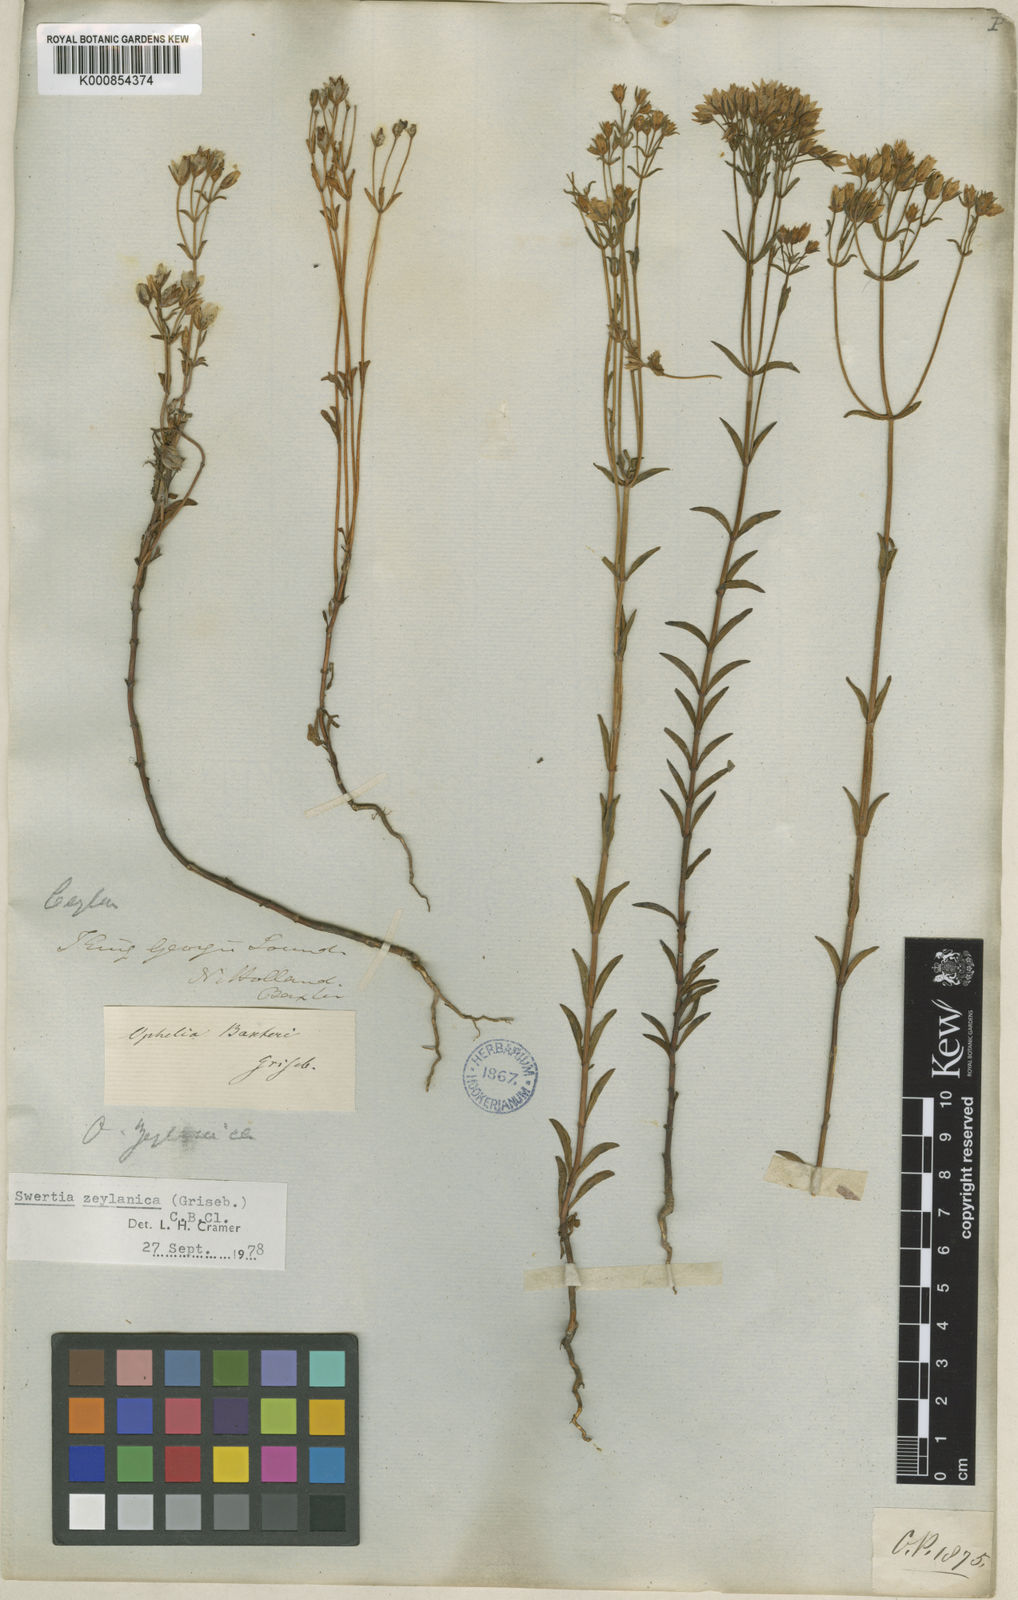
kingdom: Plantae
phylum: Tracheophyta
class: Magnoliopsida
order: Gentianales
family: Gentianaceae
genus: Swertia
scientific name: Swertia
